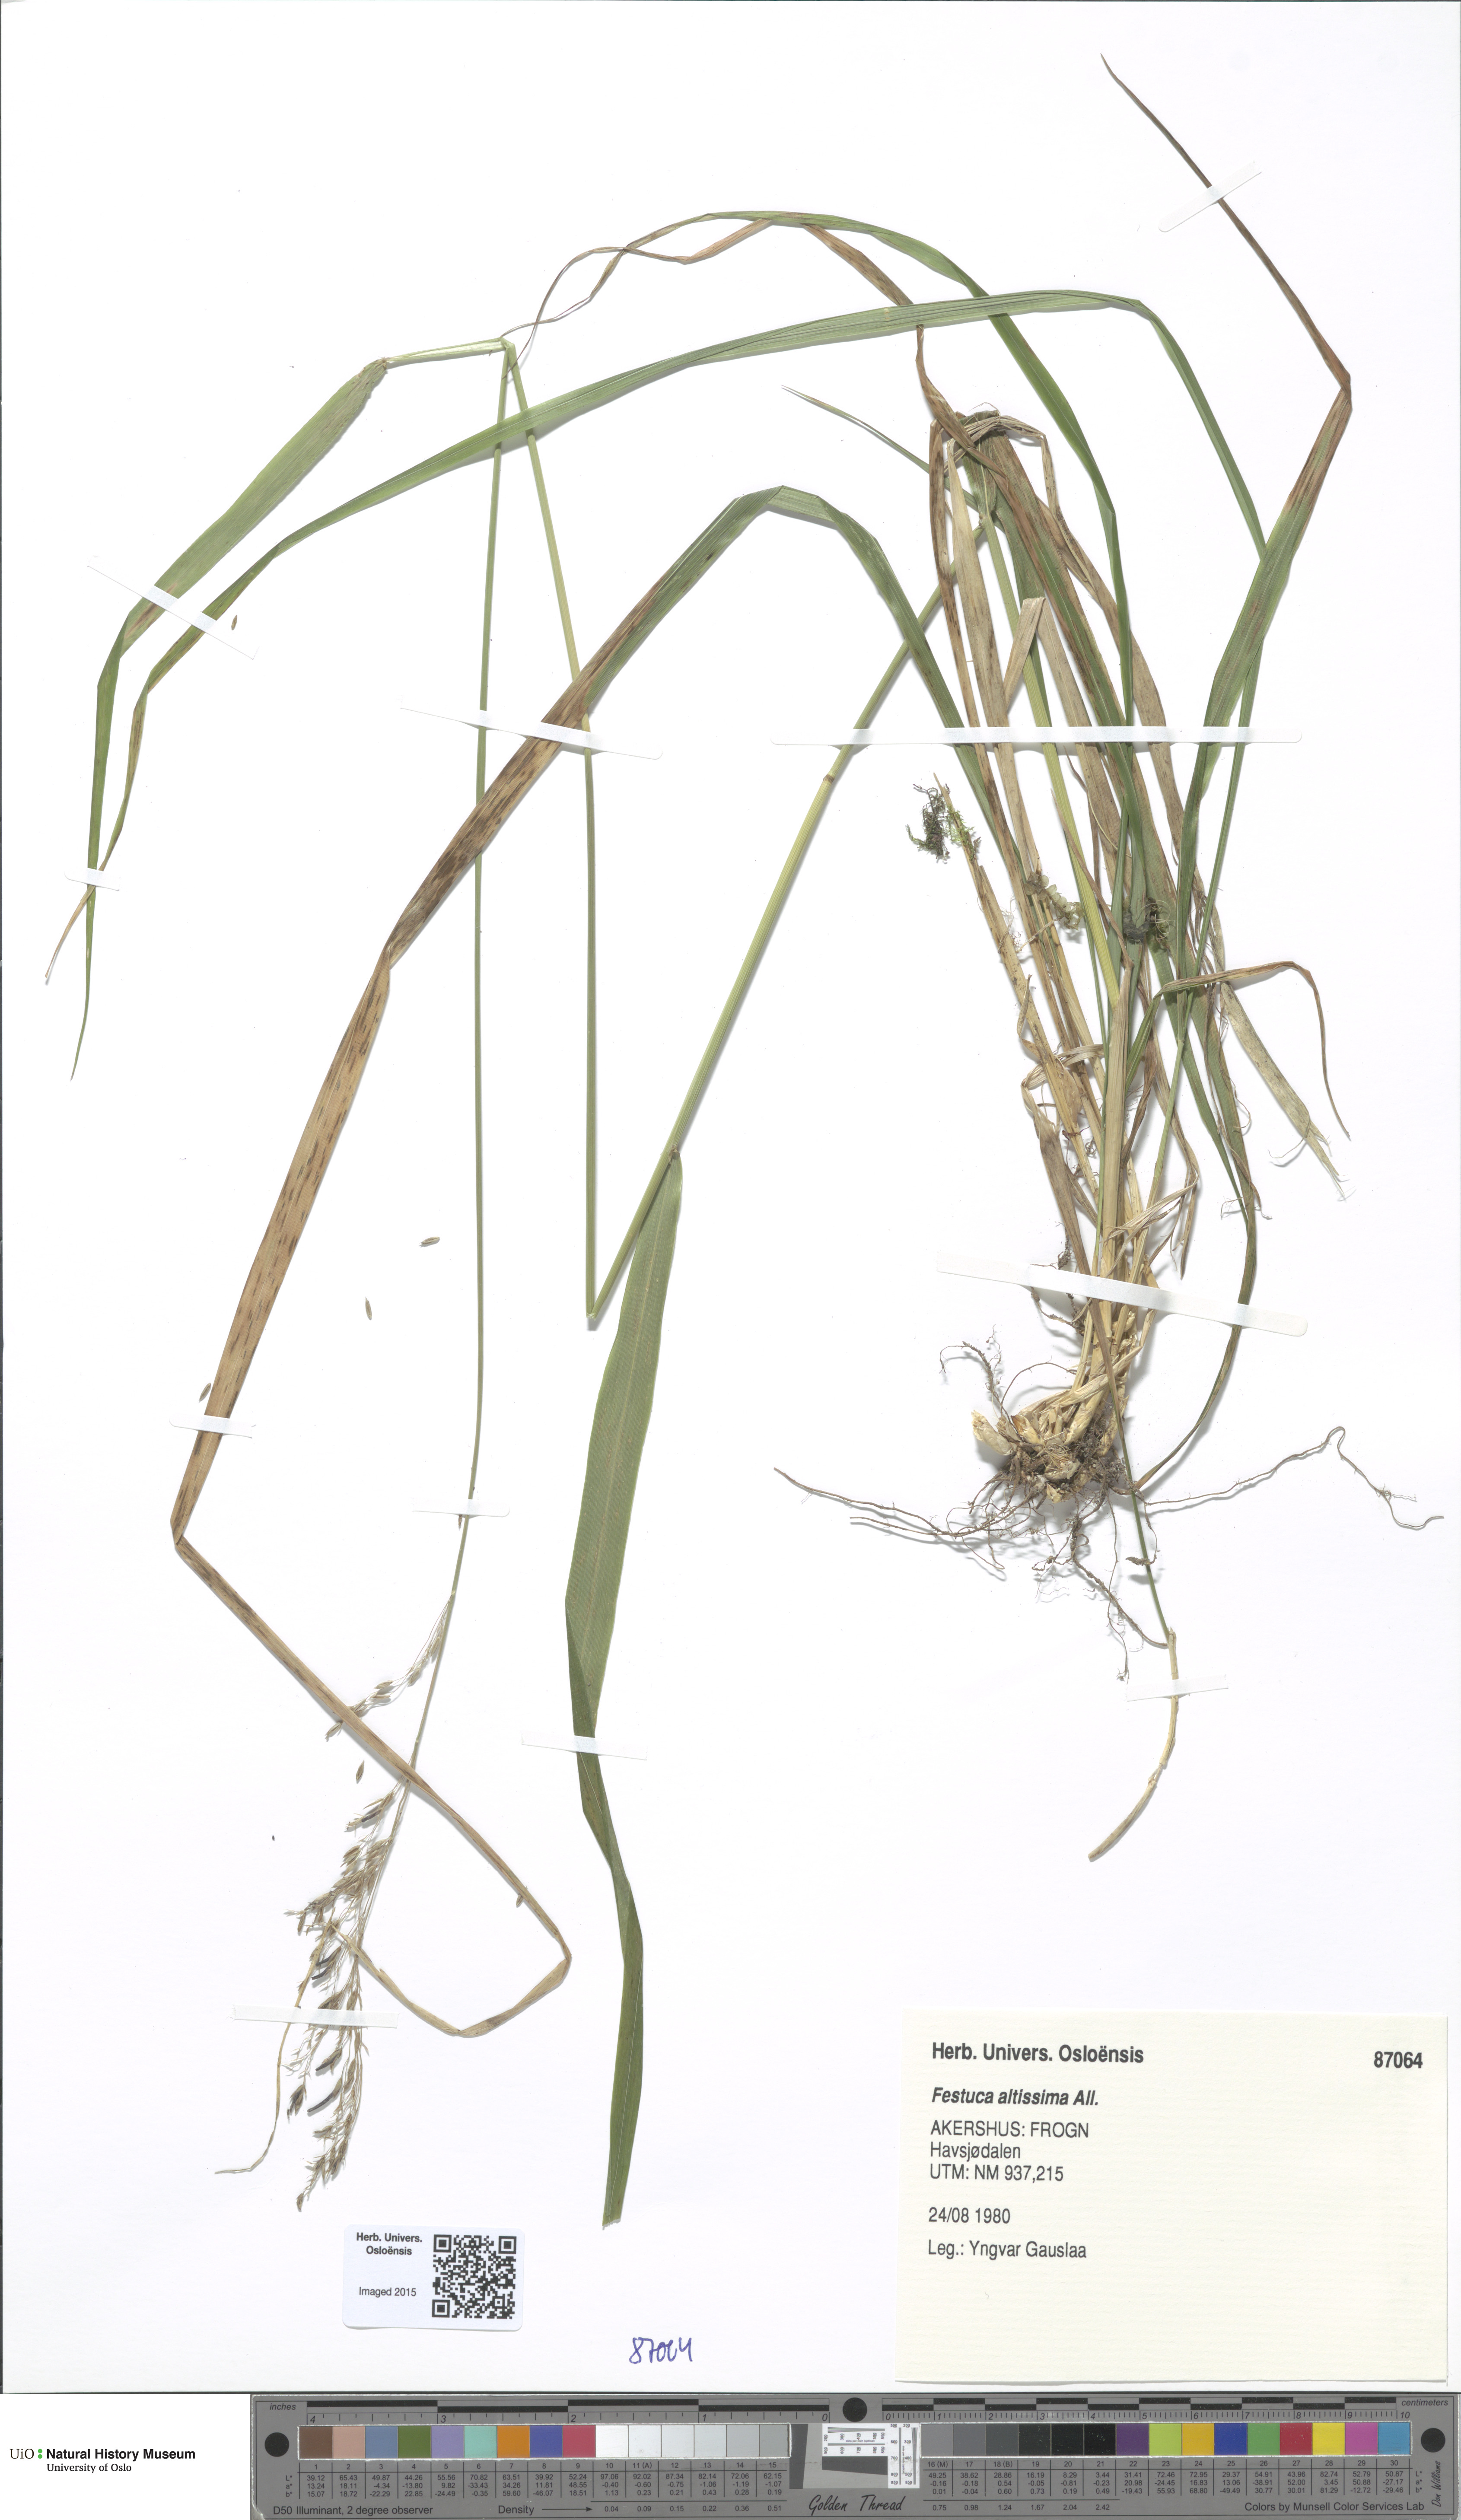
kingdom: Plantae
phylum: Tracheophyta
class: Liliopsida
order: Poales
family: Poaceae
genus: Festuca
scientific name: Festuca altissima
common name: Wood fescue
